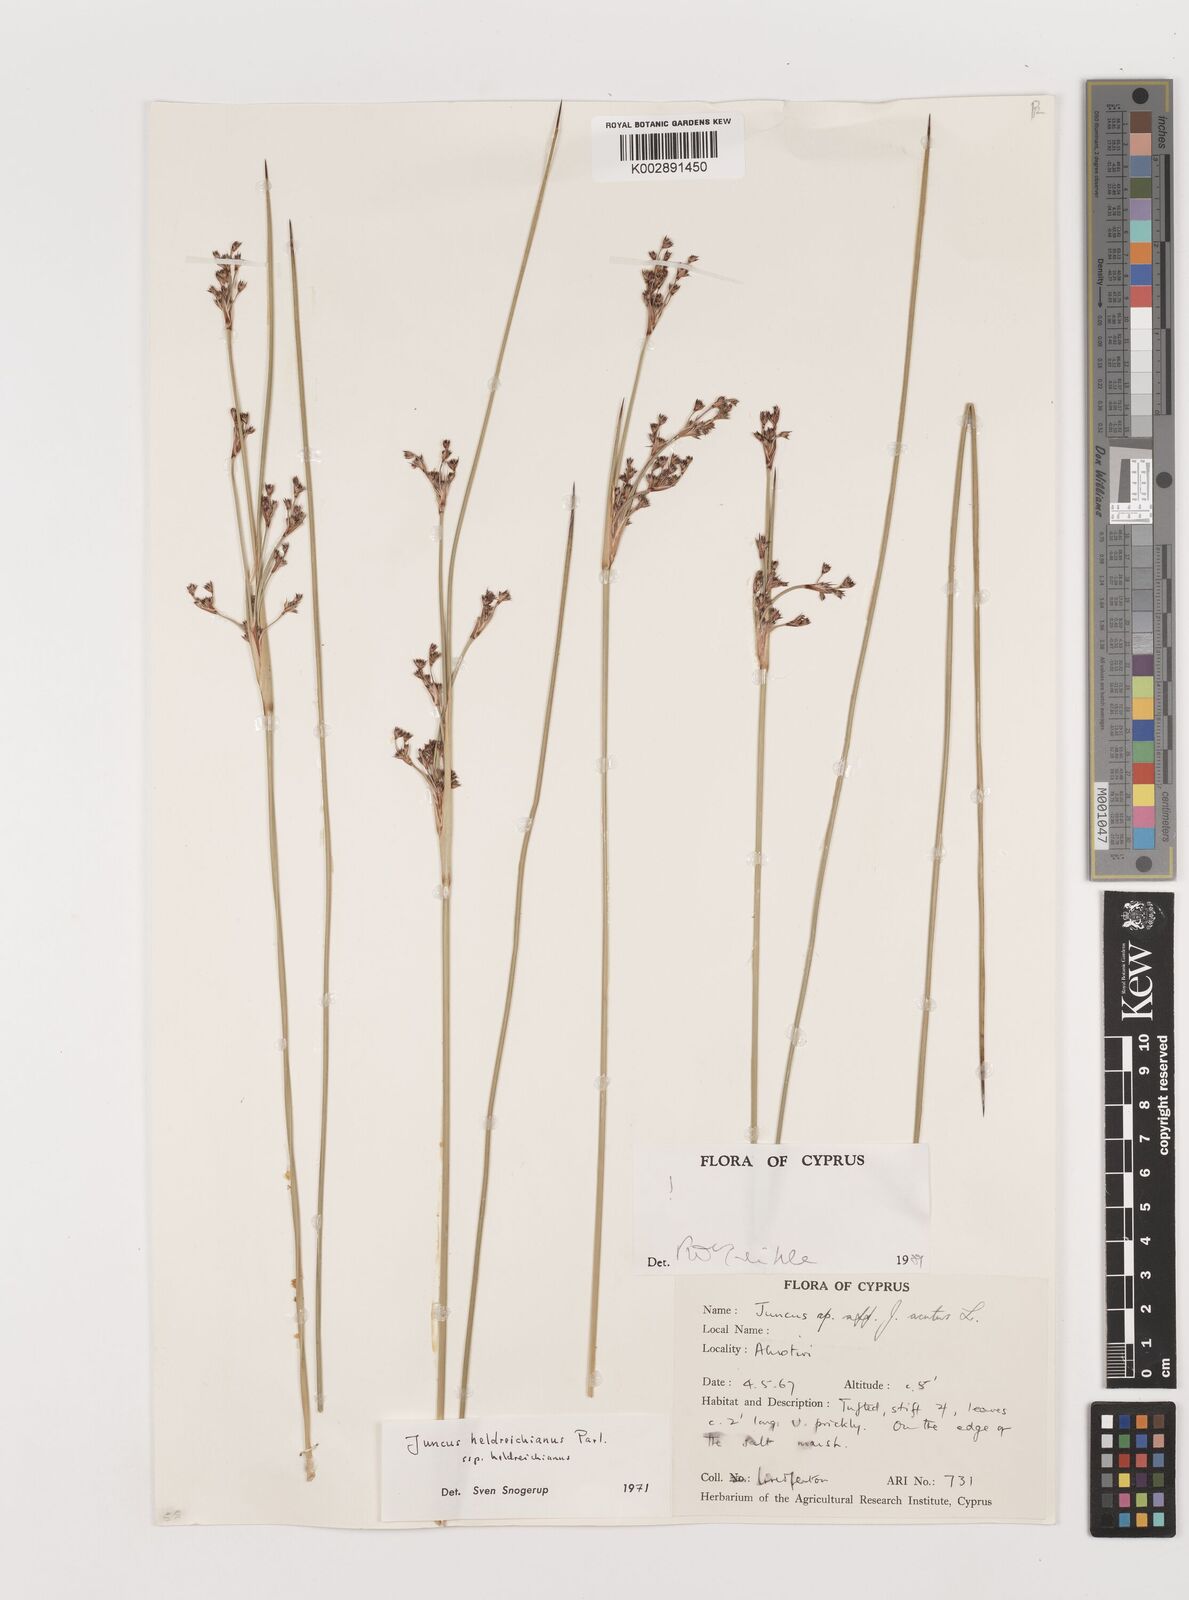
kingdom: Plantae
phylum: Tracheophyta
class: Liliopsida
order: Poales
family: Juncaceae
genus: Juncus
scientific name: Juncus heldreichianus
